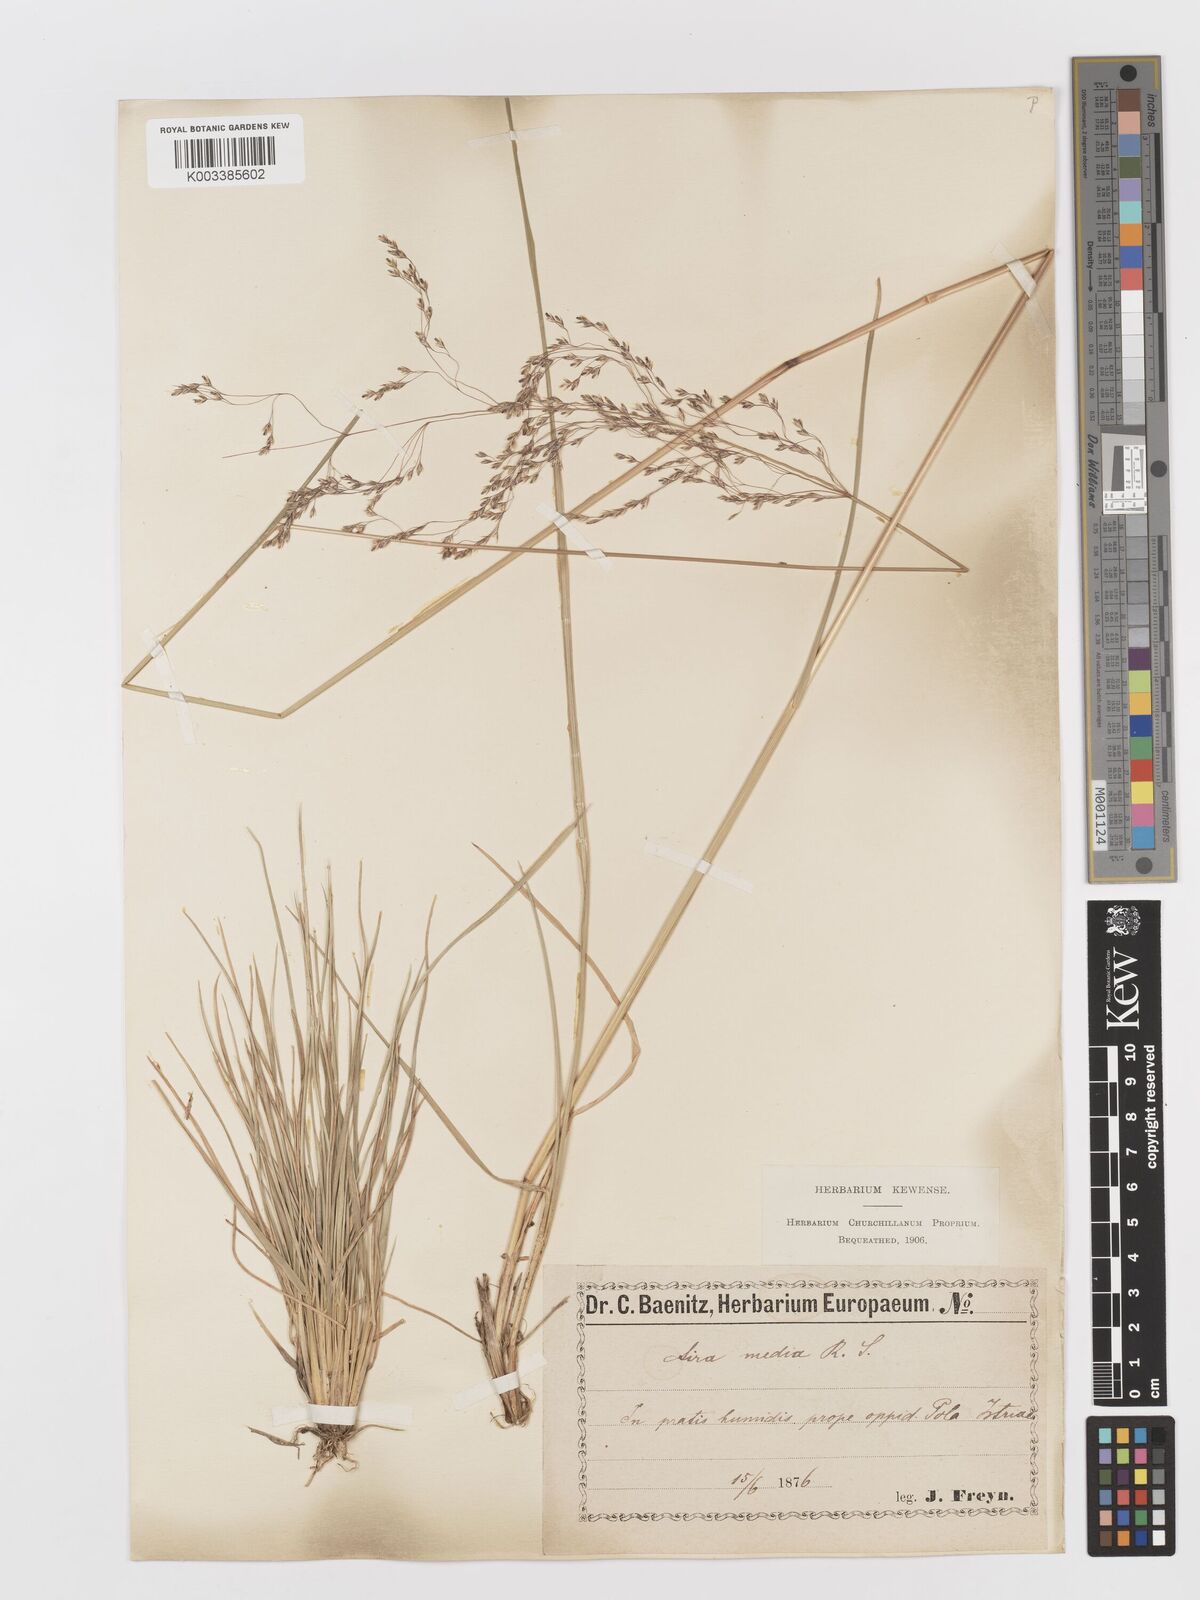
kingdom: Plantae
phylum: Tracheophyta
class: Liliopsida
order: Poales
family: Poaceae
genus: Deschampsia
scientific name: Deschampsia media
